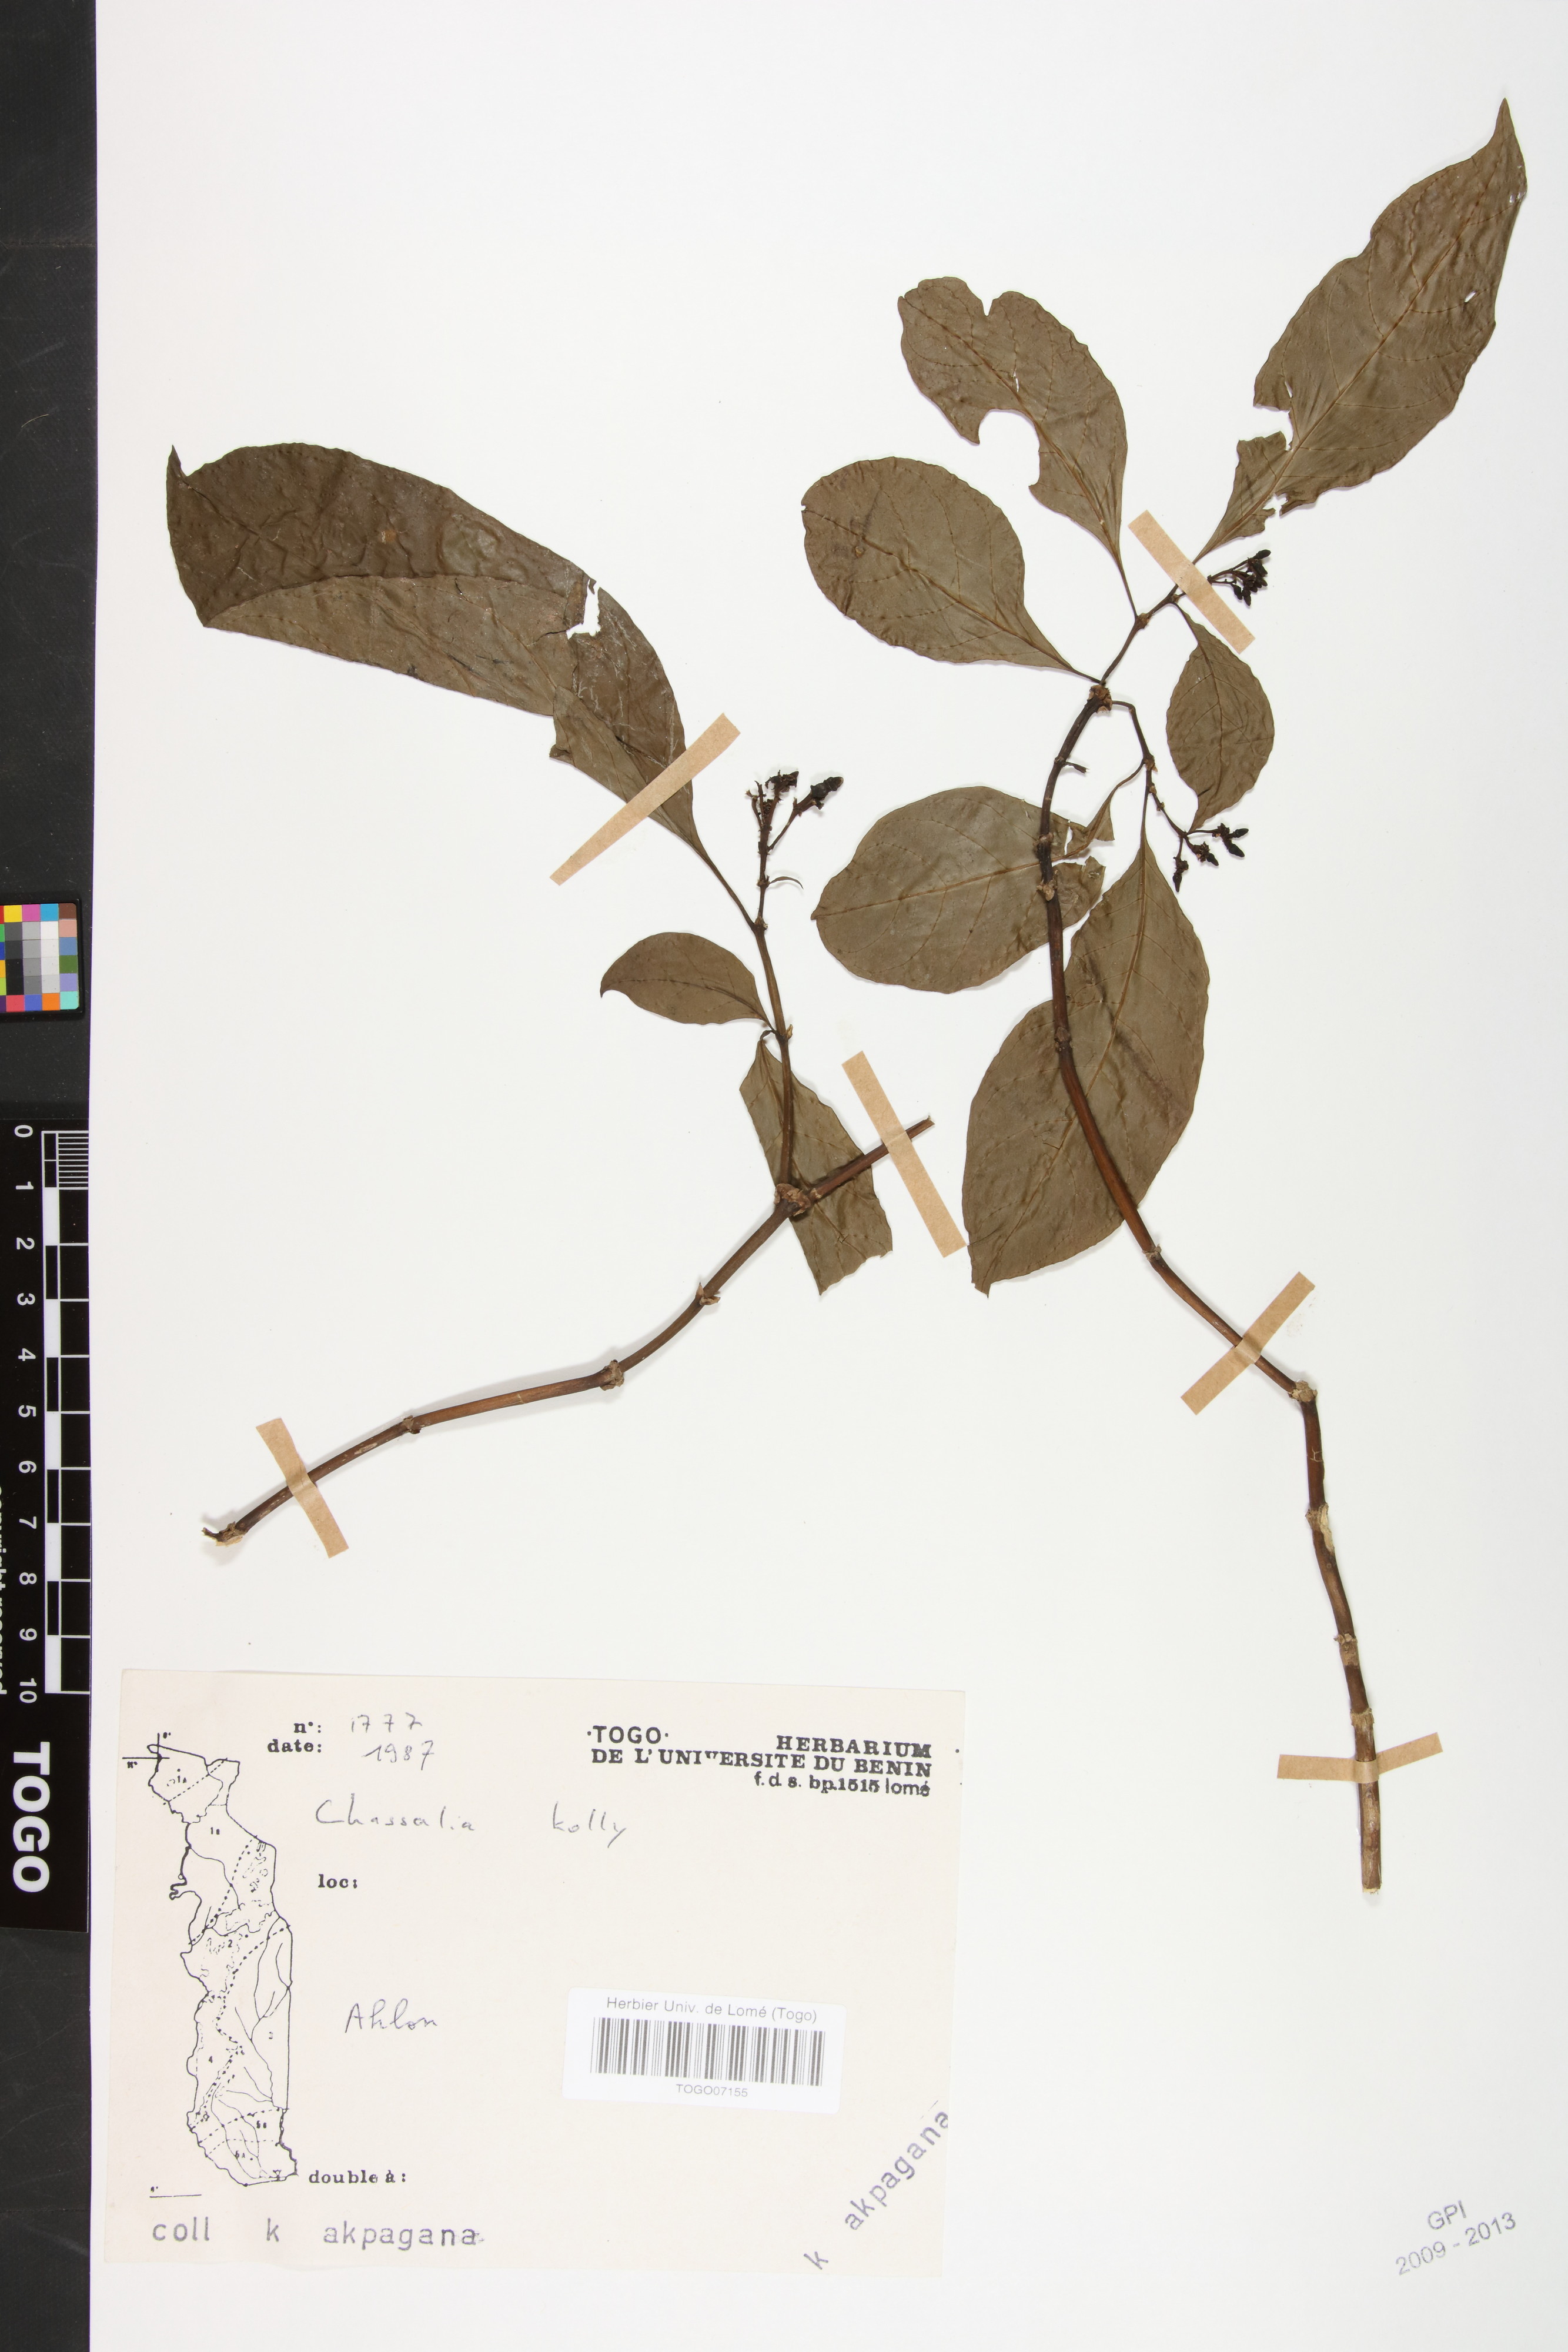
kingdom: Plantae
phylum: Tracheophyta
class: Magnoliopsida
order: Gentianales
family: Rubiaceae
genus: Chassalia
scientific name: Chassalia kolly
